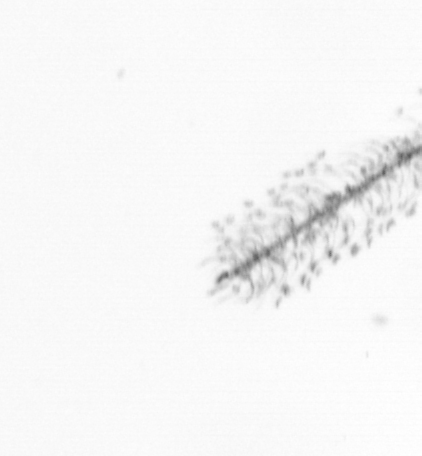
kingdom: Chromista
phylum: Ochrophyta
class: Bacillariophyceae
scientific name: Bacillariophyceae
